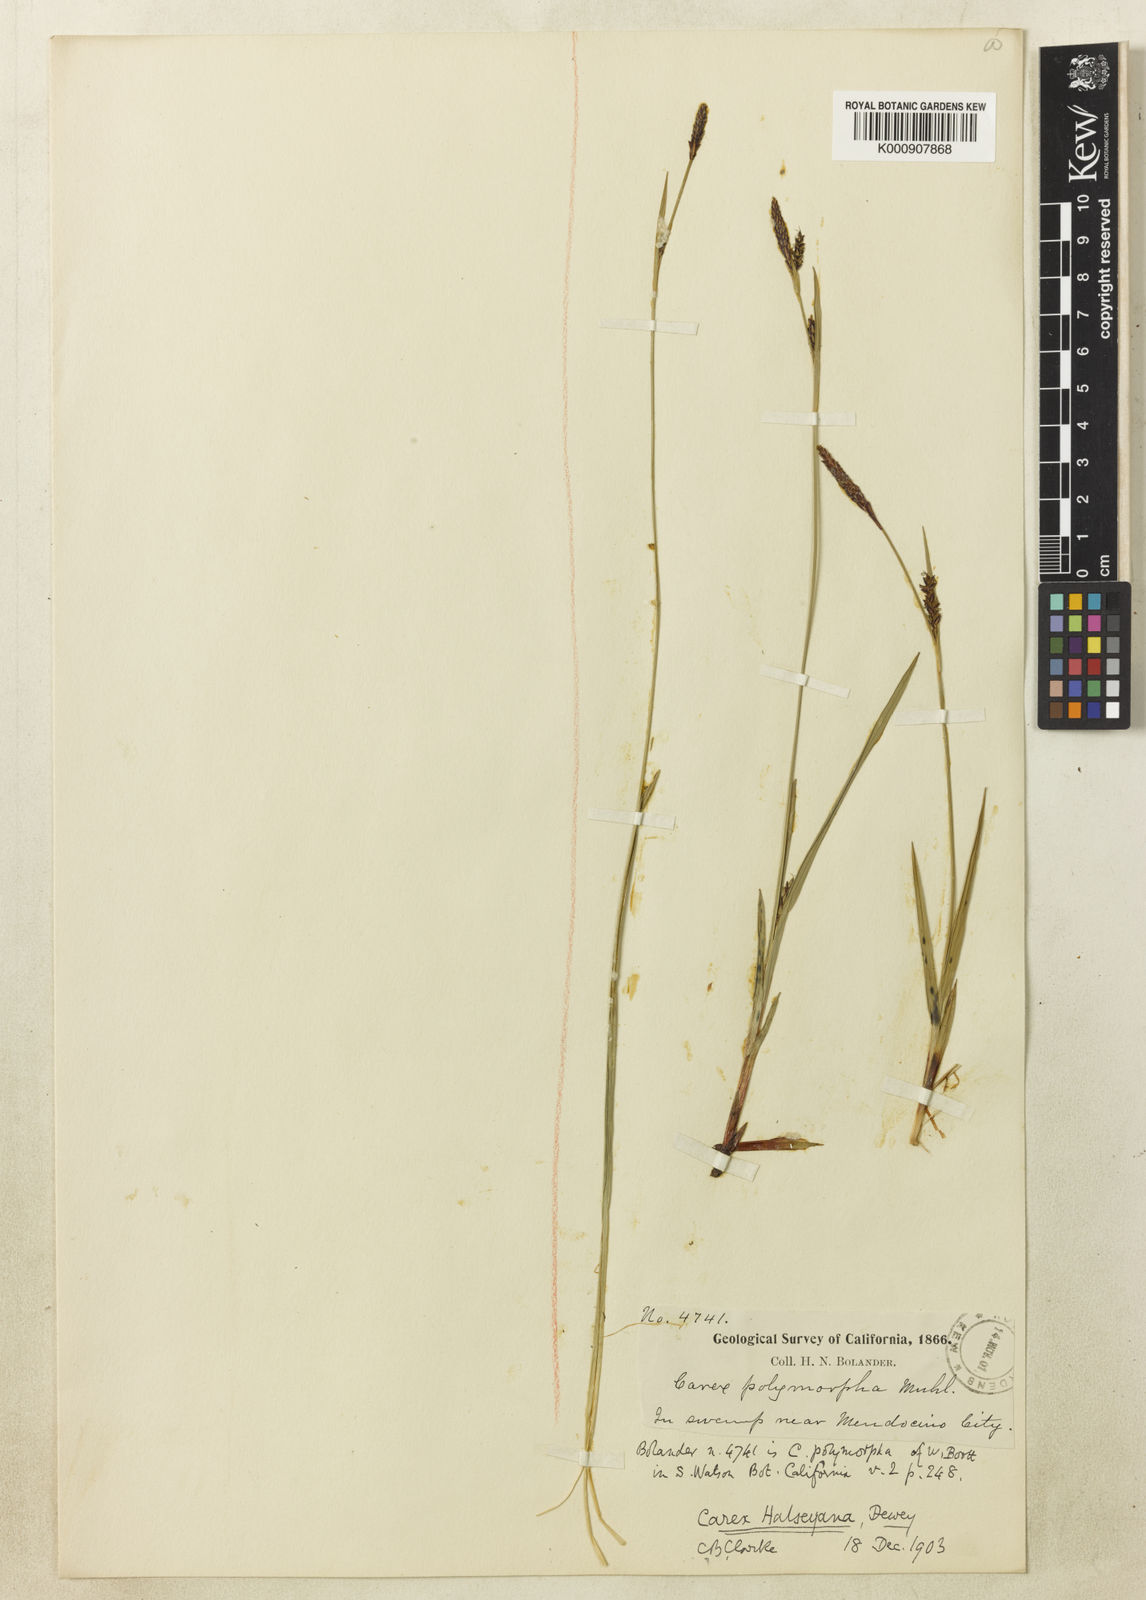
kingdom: Plantae
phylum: Tracheophyta
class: Liliopsida
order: Poales
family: Cyperaceae
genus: Carex
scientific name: Carex californica
